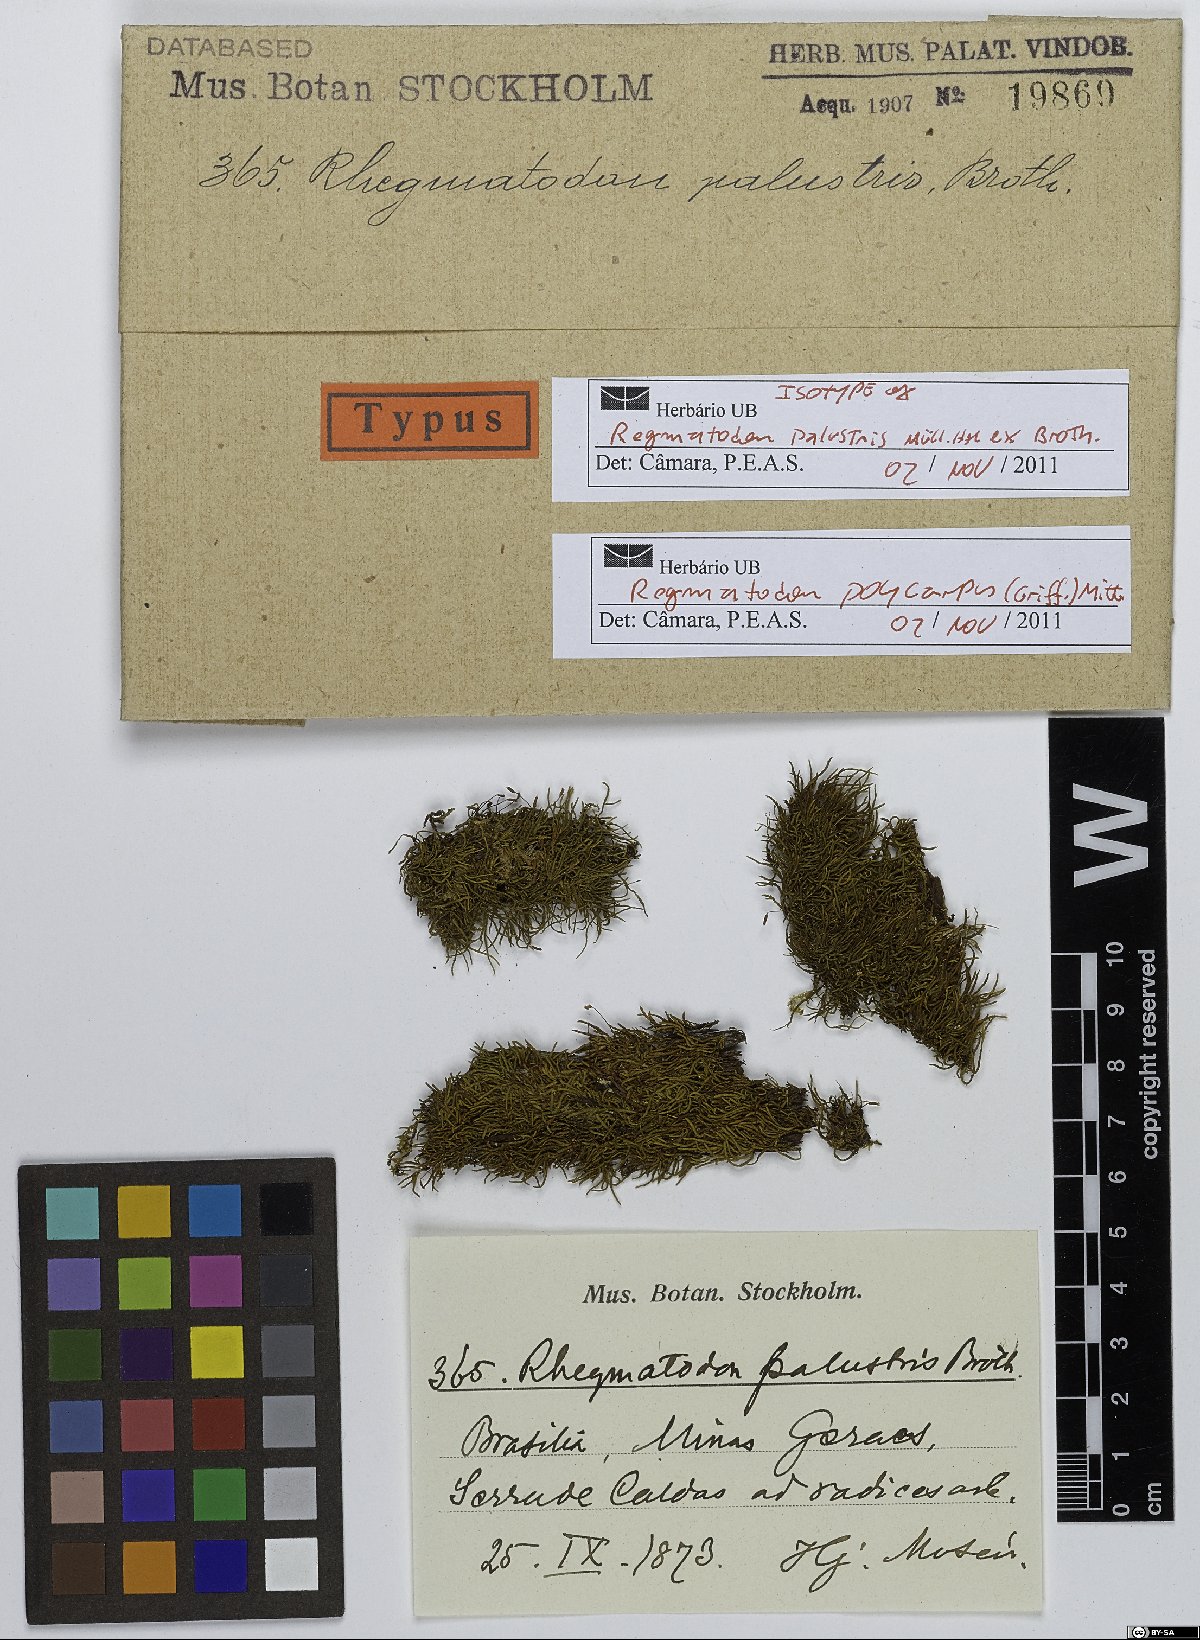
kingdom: Plantae
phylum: Bryophyta
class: Bryopsida
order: Hypnales
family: Regmatodontaceae
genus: Regmatodon
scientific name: Regmatodon
